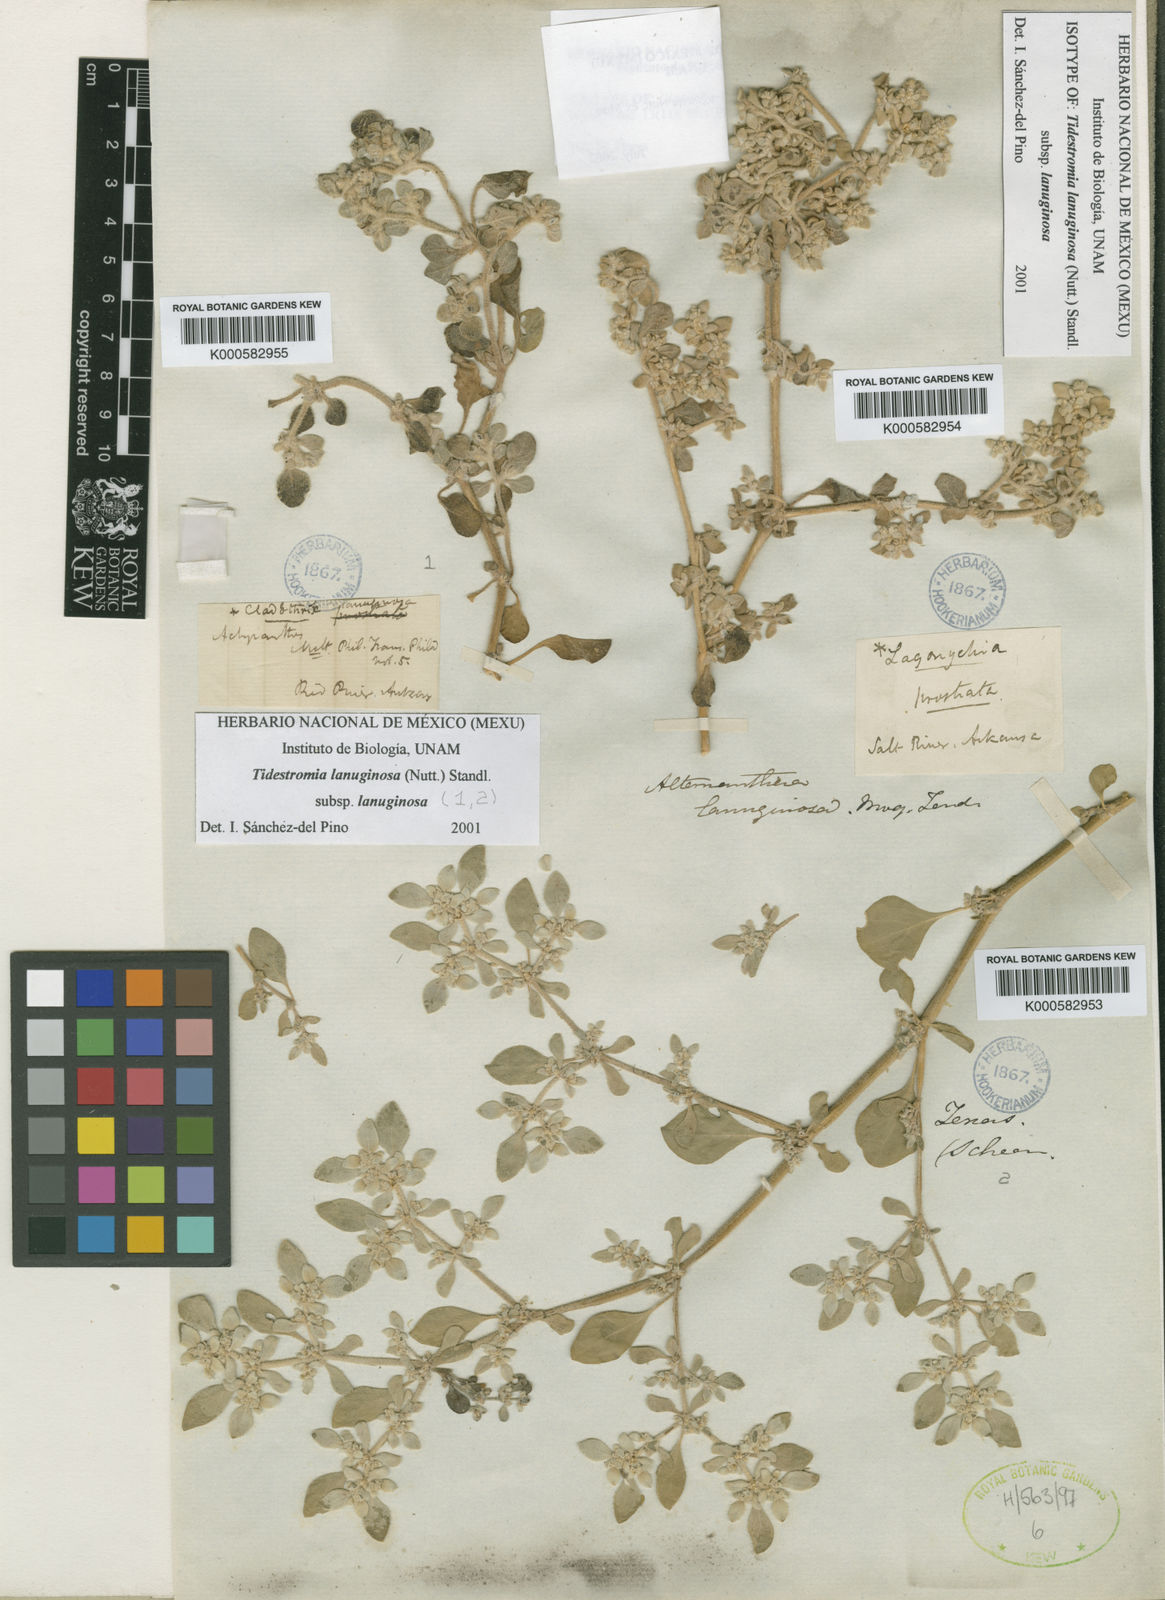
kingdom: Plantae
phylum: Tracheophyta
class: Magnoliopsida
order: Caryophyllales
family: Amaranthaceae
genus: Tidestromia
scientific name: Tidestromia lanuginosa
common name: Woolly tidestromia
